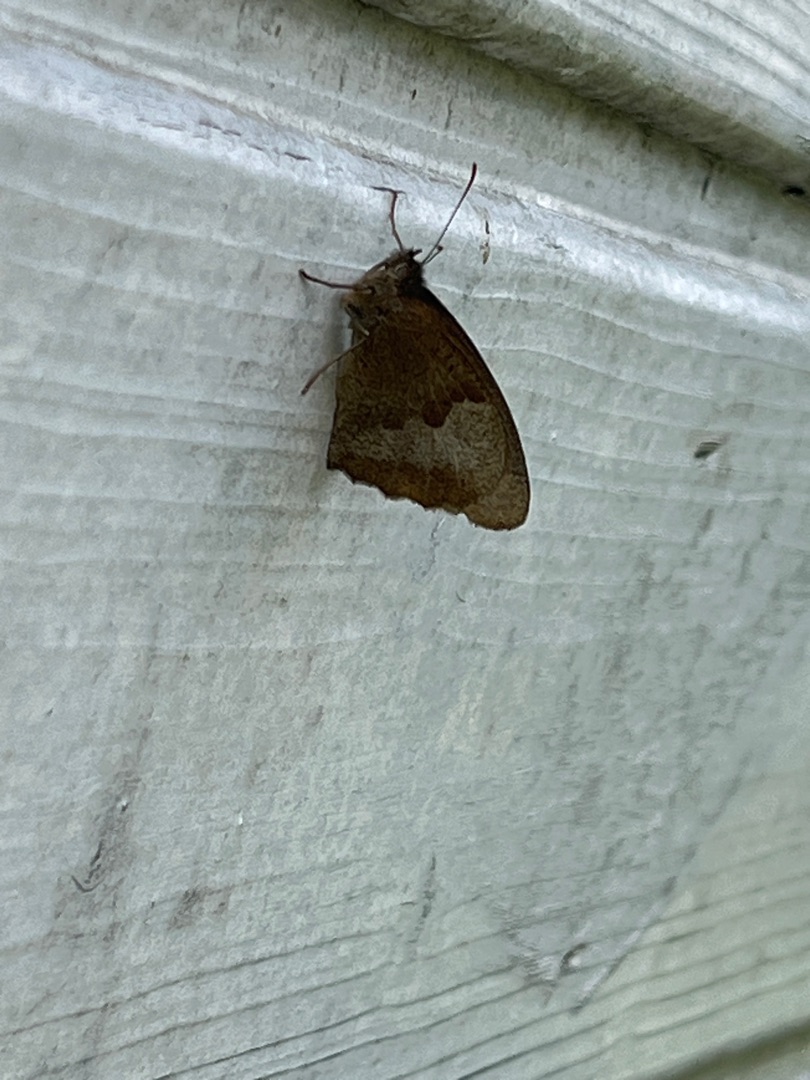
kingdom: Animalia
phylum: Arthropoda
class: Insecta
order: Lepidoptera
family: Nymphalidae
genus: Maniola
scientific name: Maniola jurtina
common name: Græsrandøje
